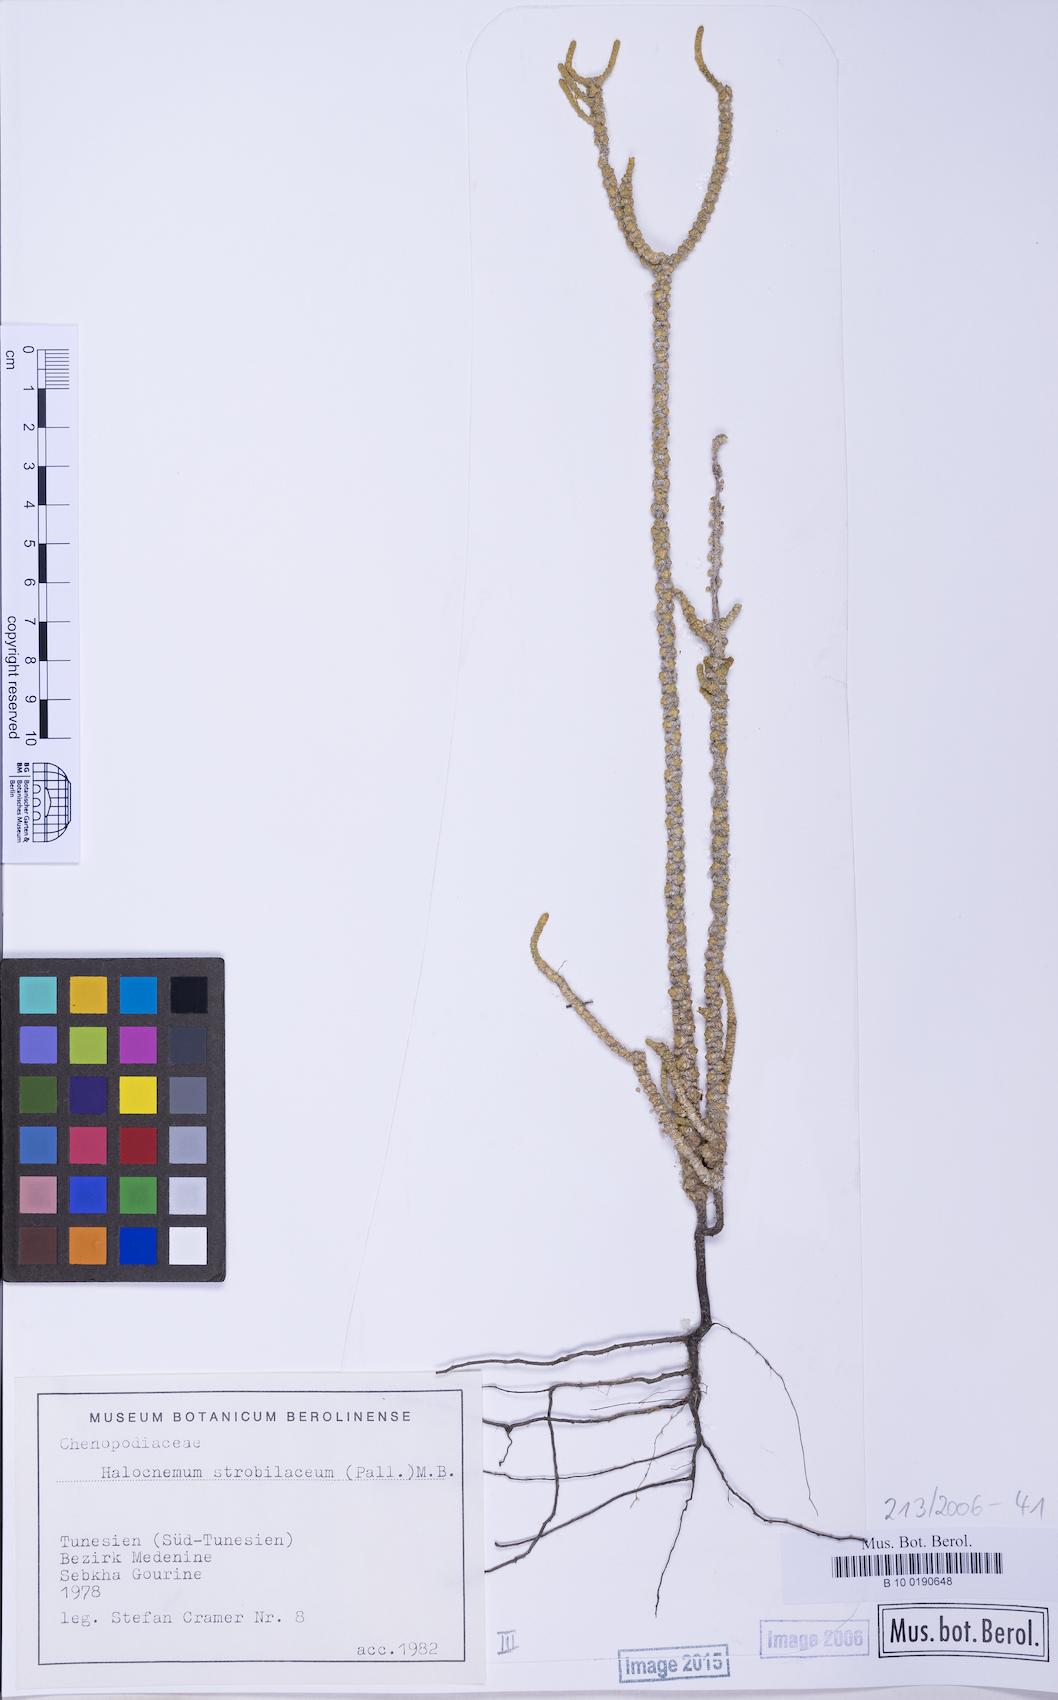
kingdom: Plantae
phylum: Tracheophyta
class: Magnoliopsida
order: Caryophyllales
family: Amaranthaceae
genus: Halocnemum
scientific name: Halocnemum strobilaceum
